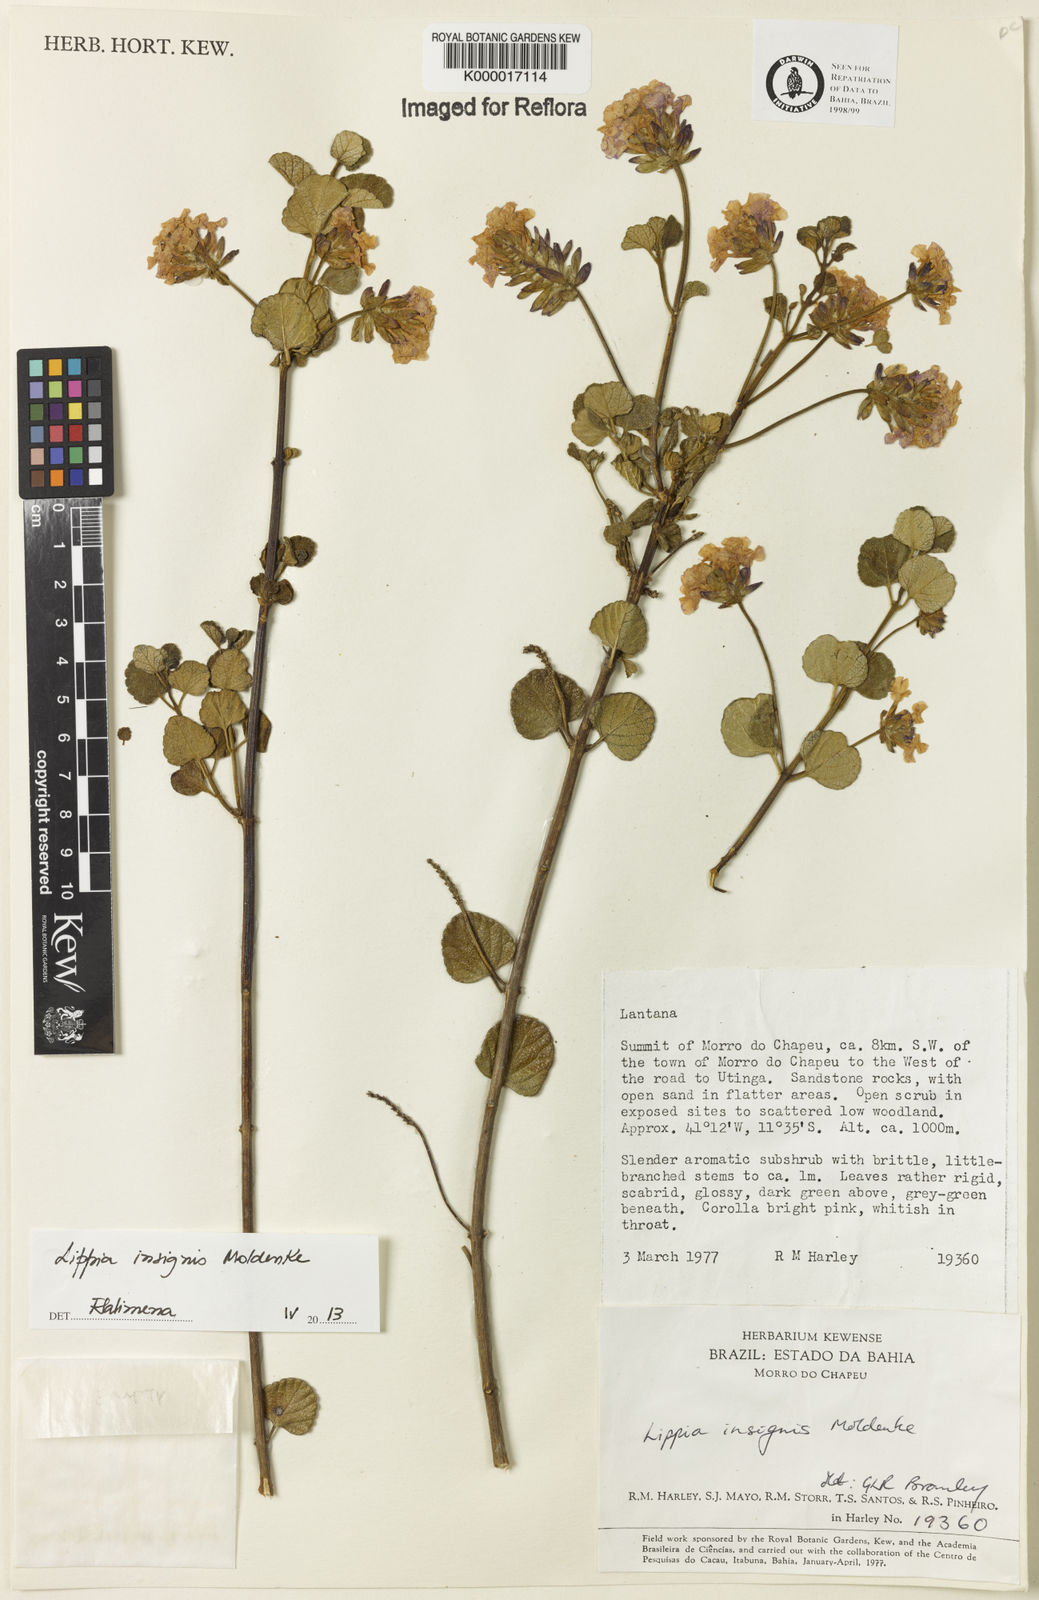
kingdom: Plantae
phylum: Tracheophyta
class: Magnoliopsida
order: Lamiales
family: Verbenaceae
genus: Lippia
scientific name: Lippia insignis
